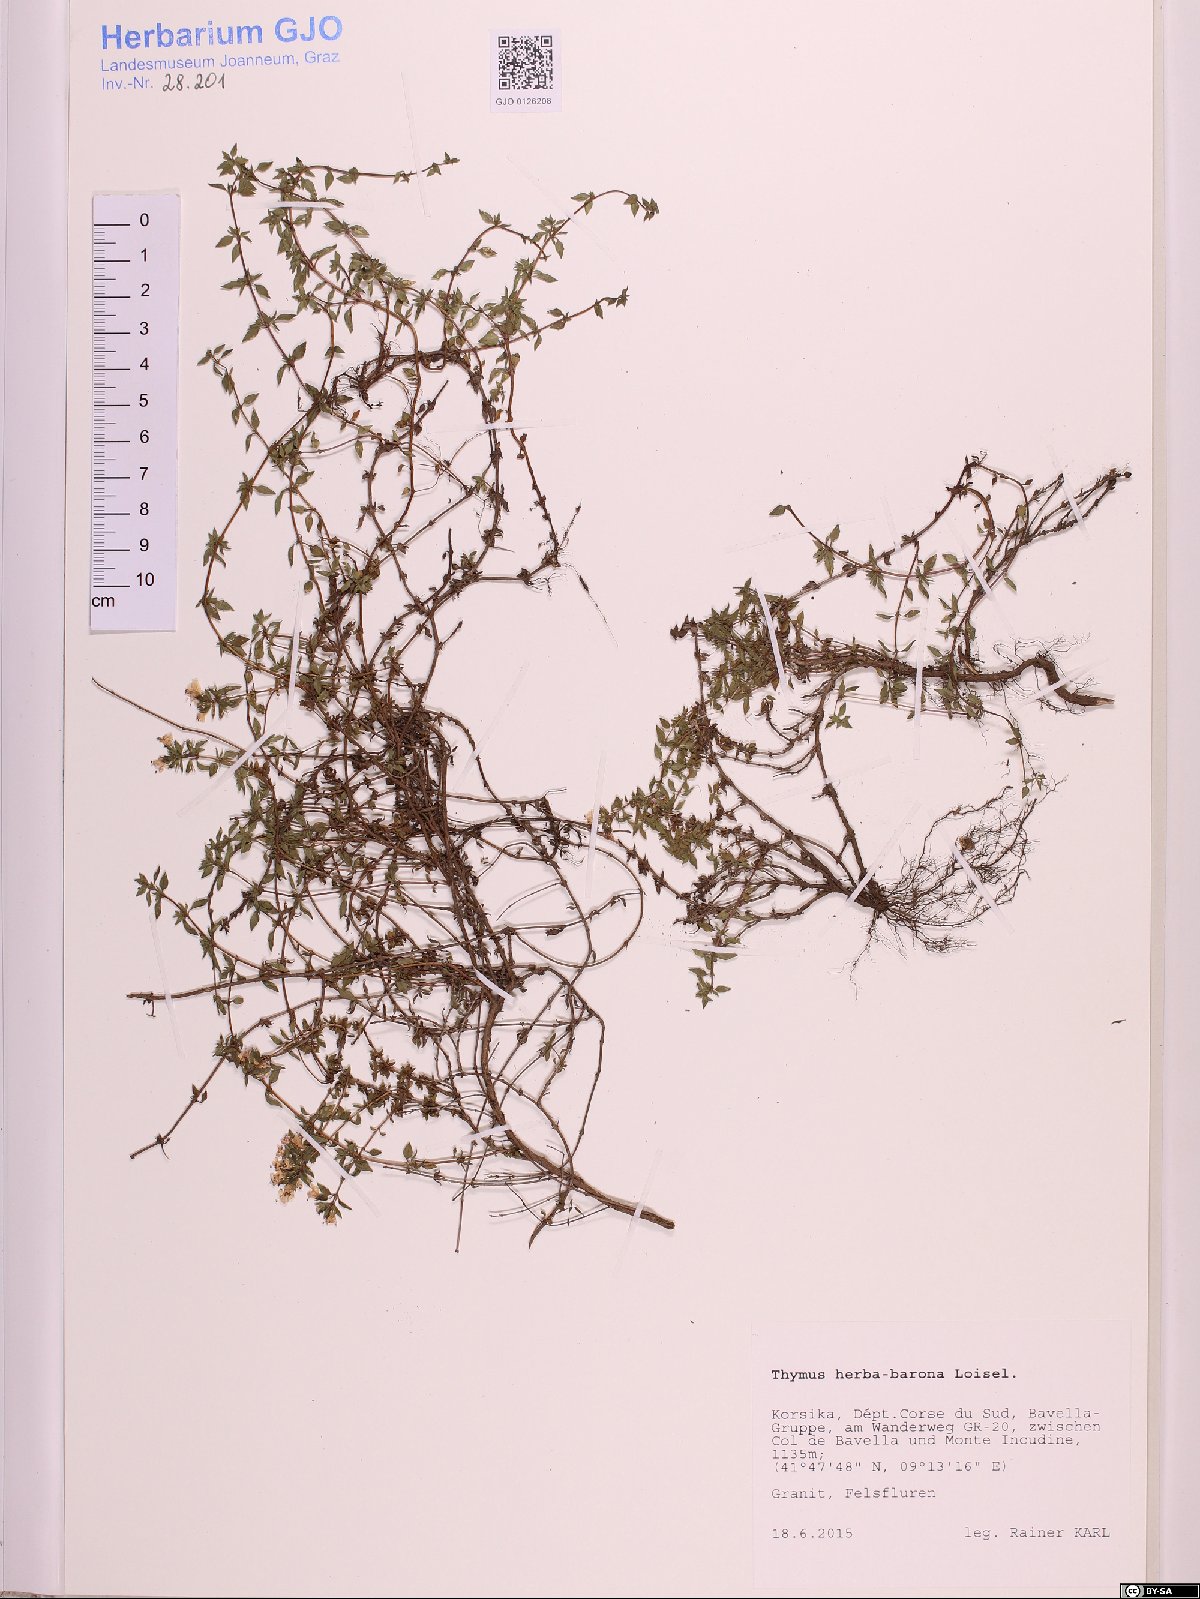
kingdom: Plantae
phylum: Tracheophyta
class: Magnoliopsida
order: Lamiales
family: Lamiaceae
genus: Thymus
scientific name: Thymus herba-barona
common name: Caraway thyme
